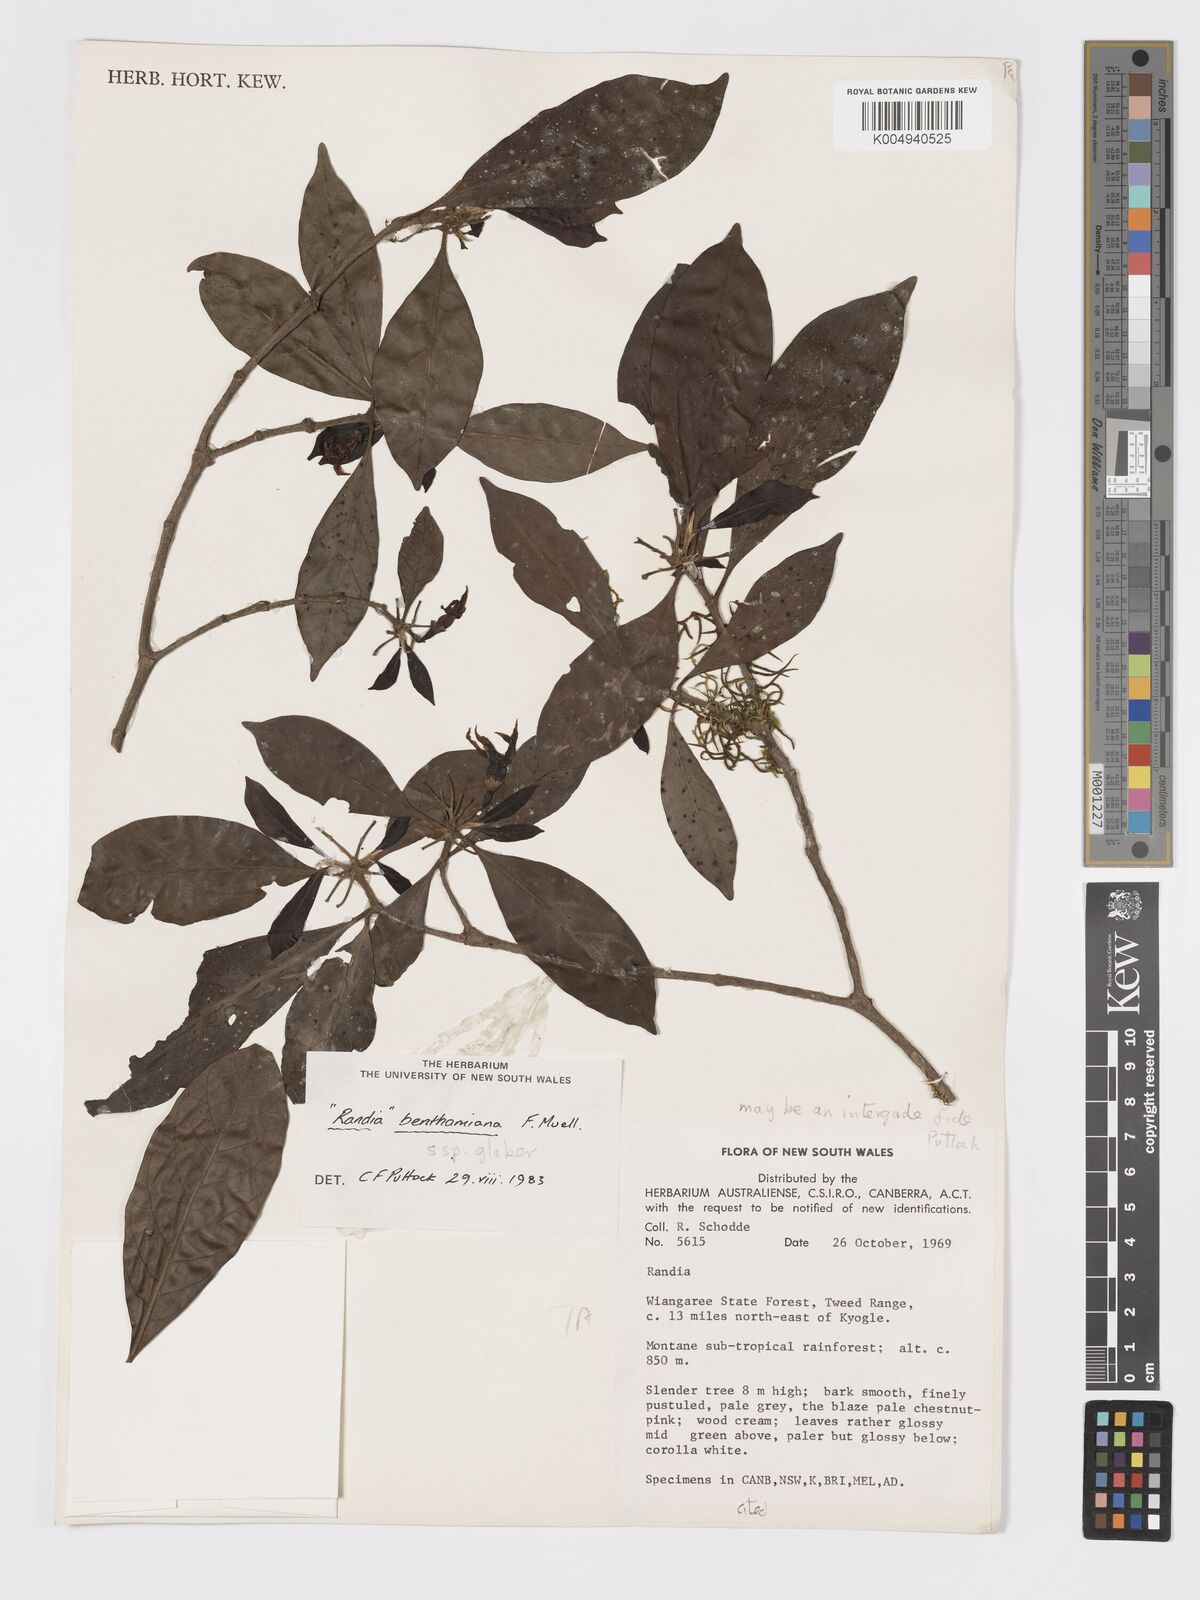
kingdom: Plantae
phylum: Tracheophyta
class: Magnoliopsida
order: Gentianales
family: Rubiaceae
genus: Atractocarpus
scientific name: Atractocarpus benthamianus
